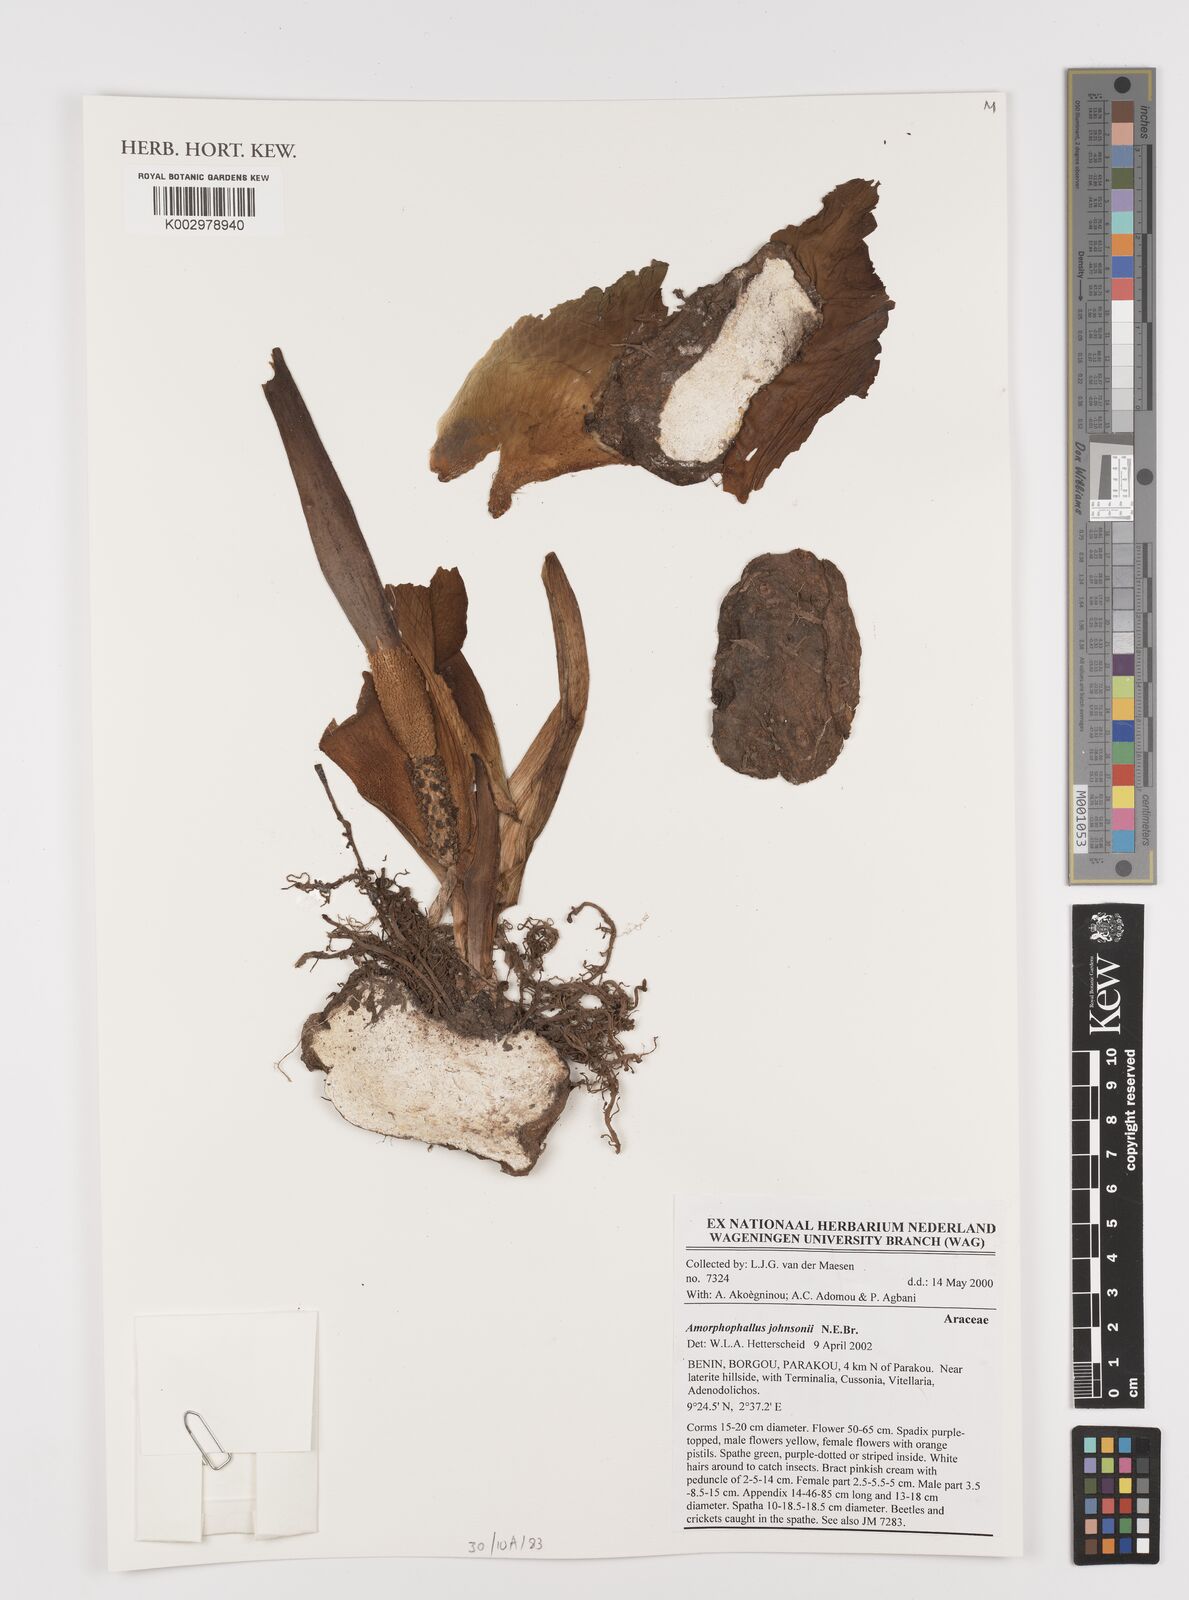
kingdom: Plantae
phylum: Tracheophyta
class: Liliopsida
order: Alismatales
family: Araceae
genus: Amorphophallus
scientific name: Amorphophallus johnsonii
